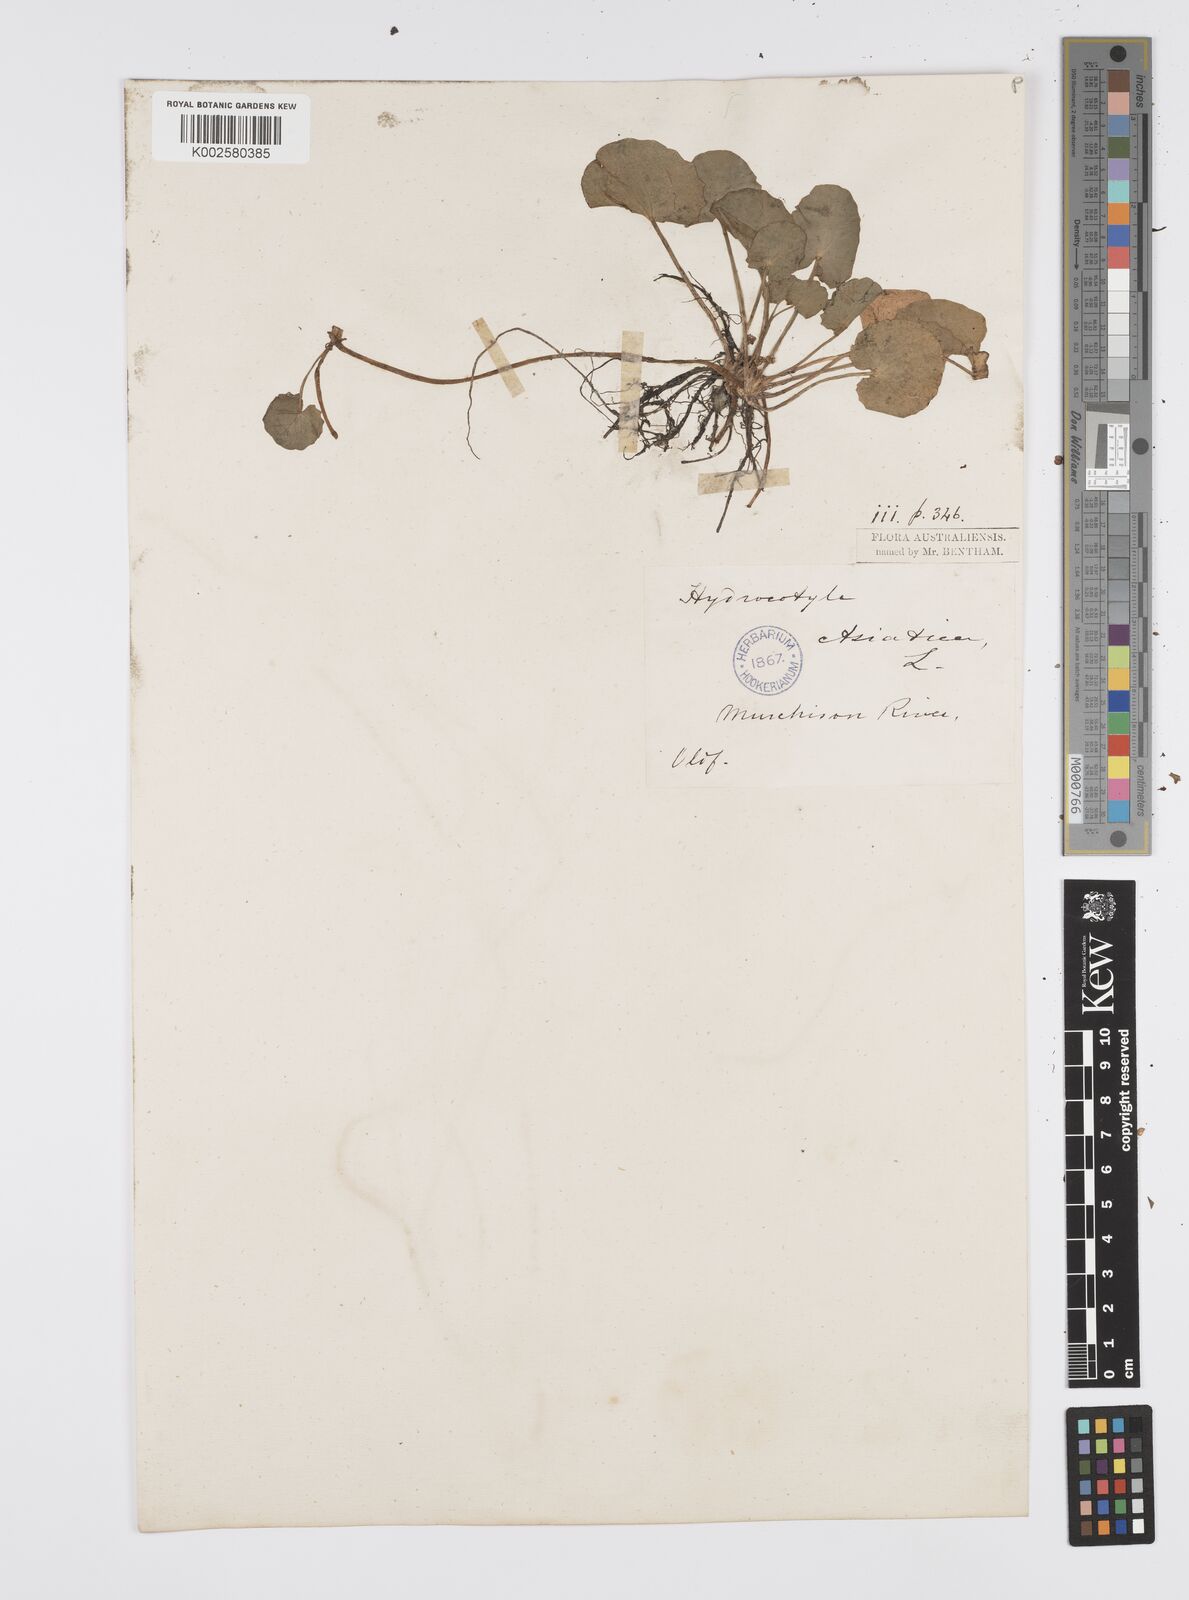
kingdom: Plantae
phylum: Tracheophyta
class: Magnoliopsida
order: Apiales
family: Apiaceae
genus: Centella
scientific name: Centella cordifolia
